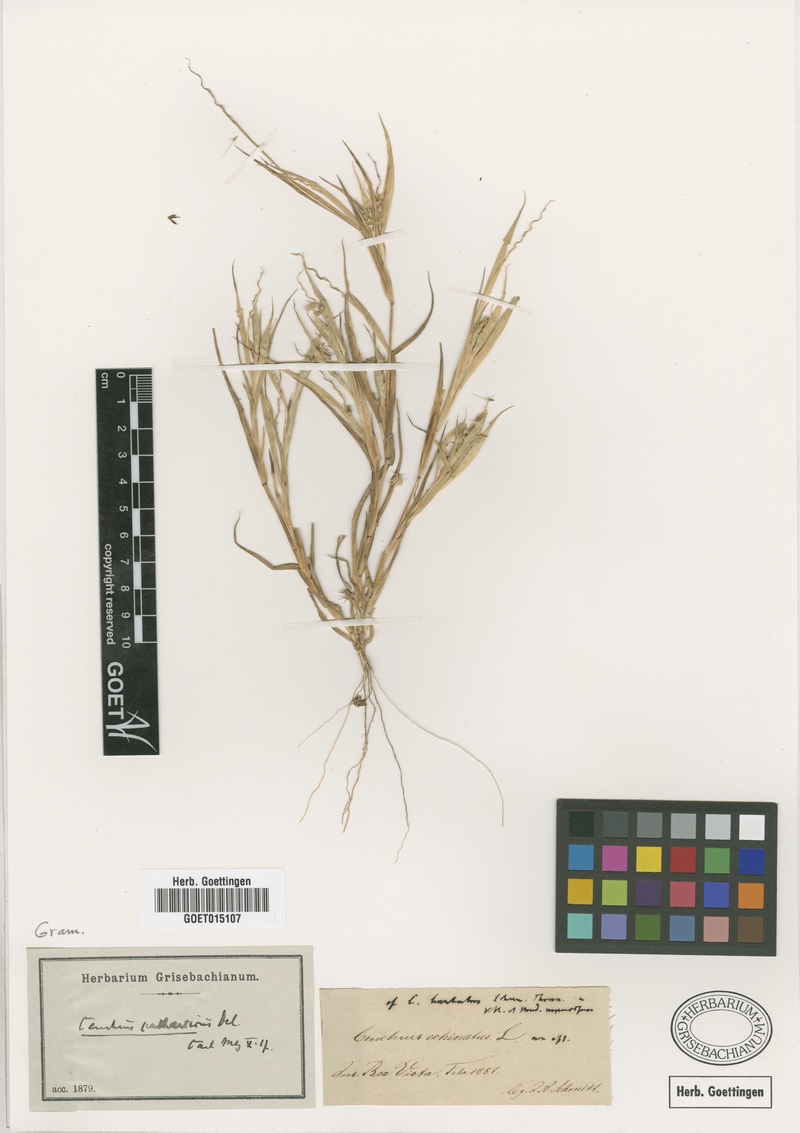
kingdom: Plantae
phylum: Tracheophyta
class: Liliopsida
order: Poales
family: Poaceae
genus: Cenchrus
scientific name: Cenchrus echinatus
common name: Southern sandbur
